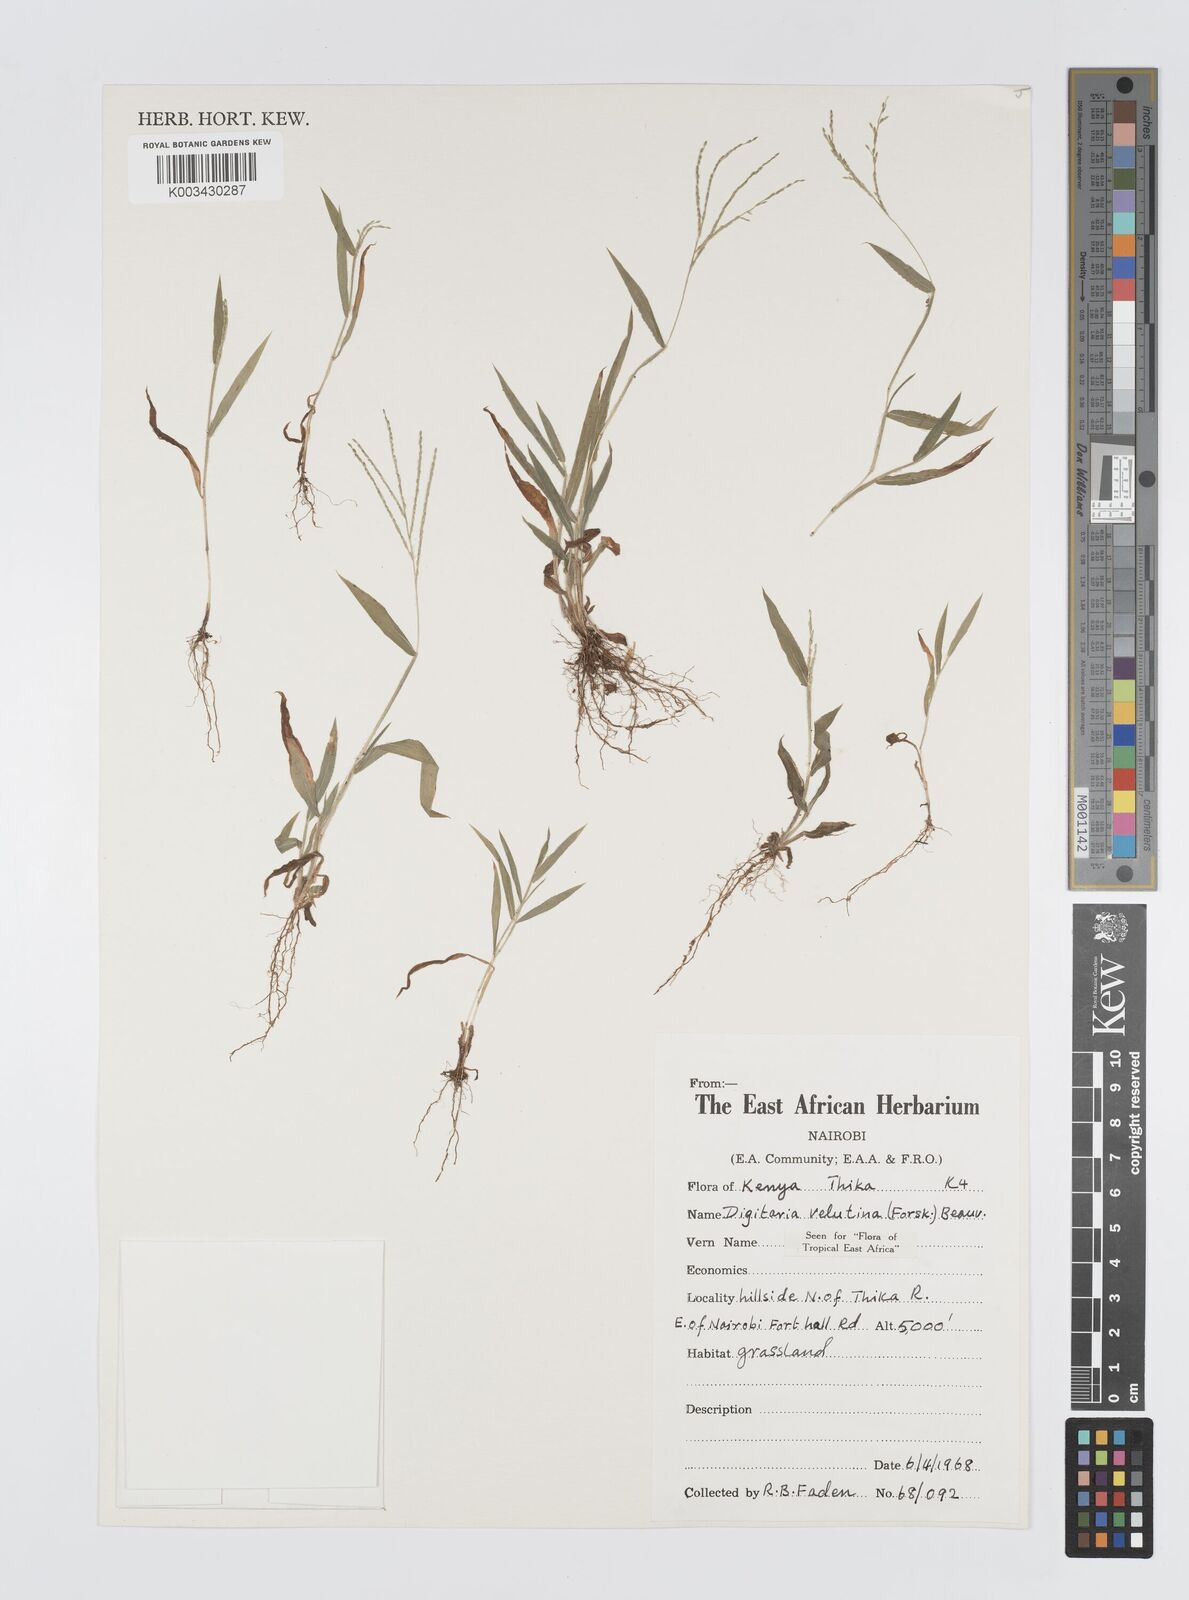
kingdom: Plantae
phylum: Tracheophyta
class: Liliopsida
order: Poales
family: Poaceae
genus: Digitaria
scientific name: Digitaria velutina
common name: Long-plume finger grass
